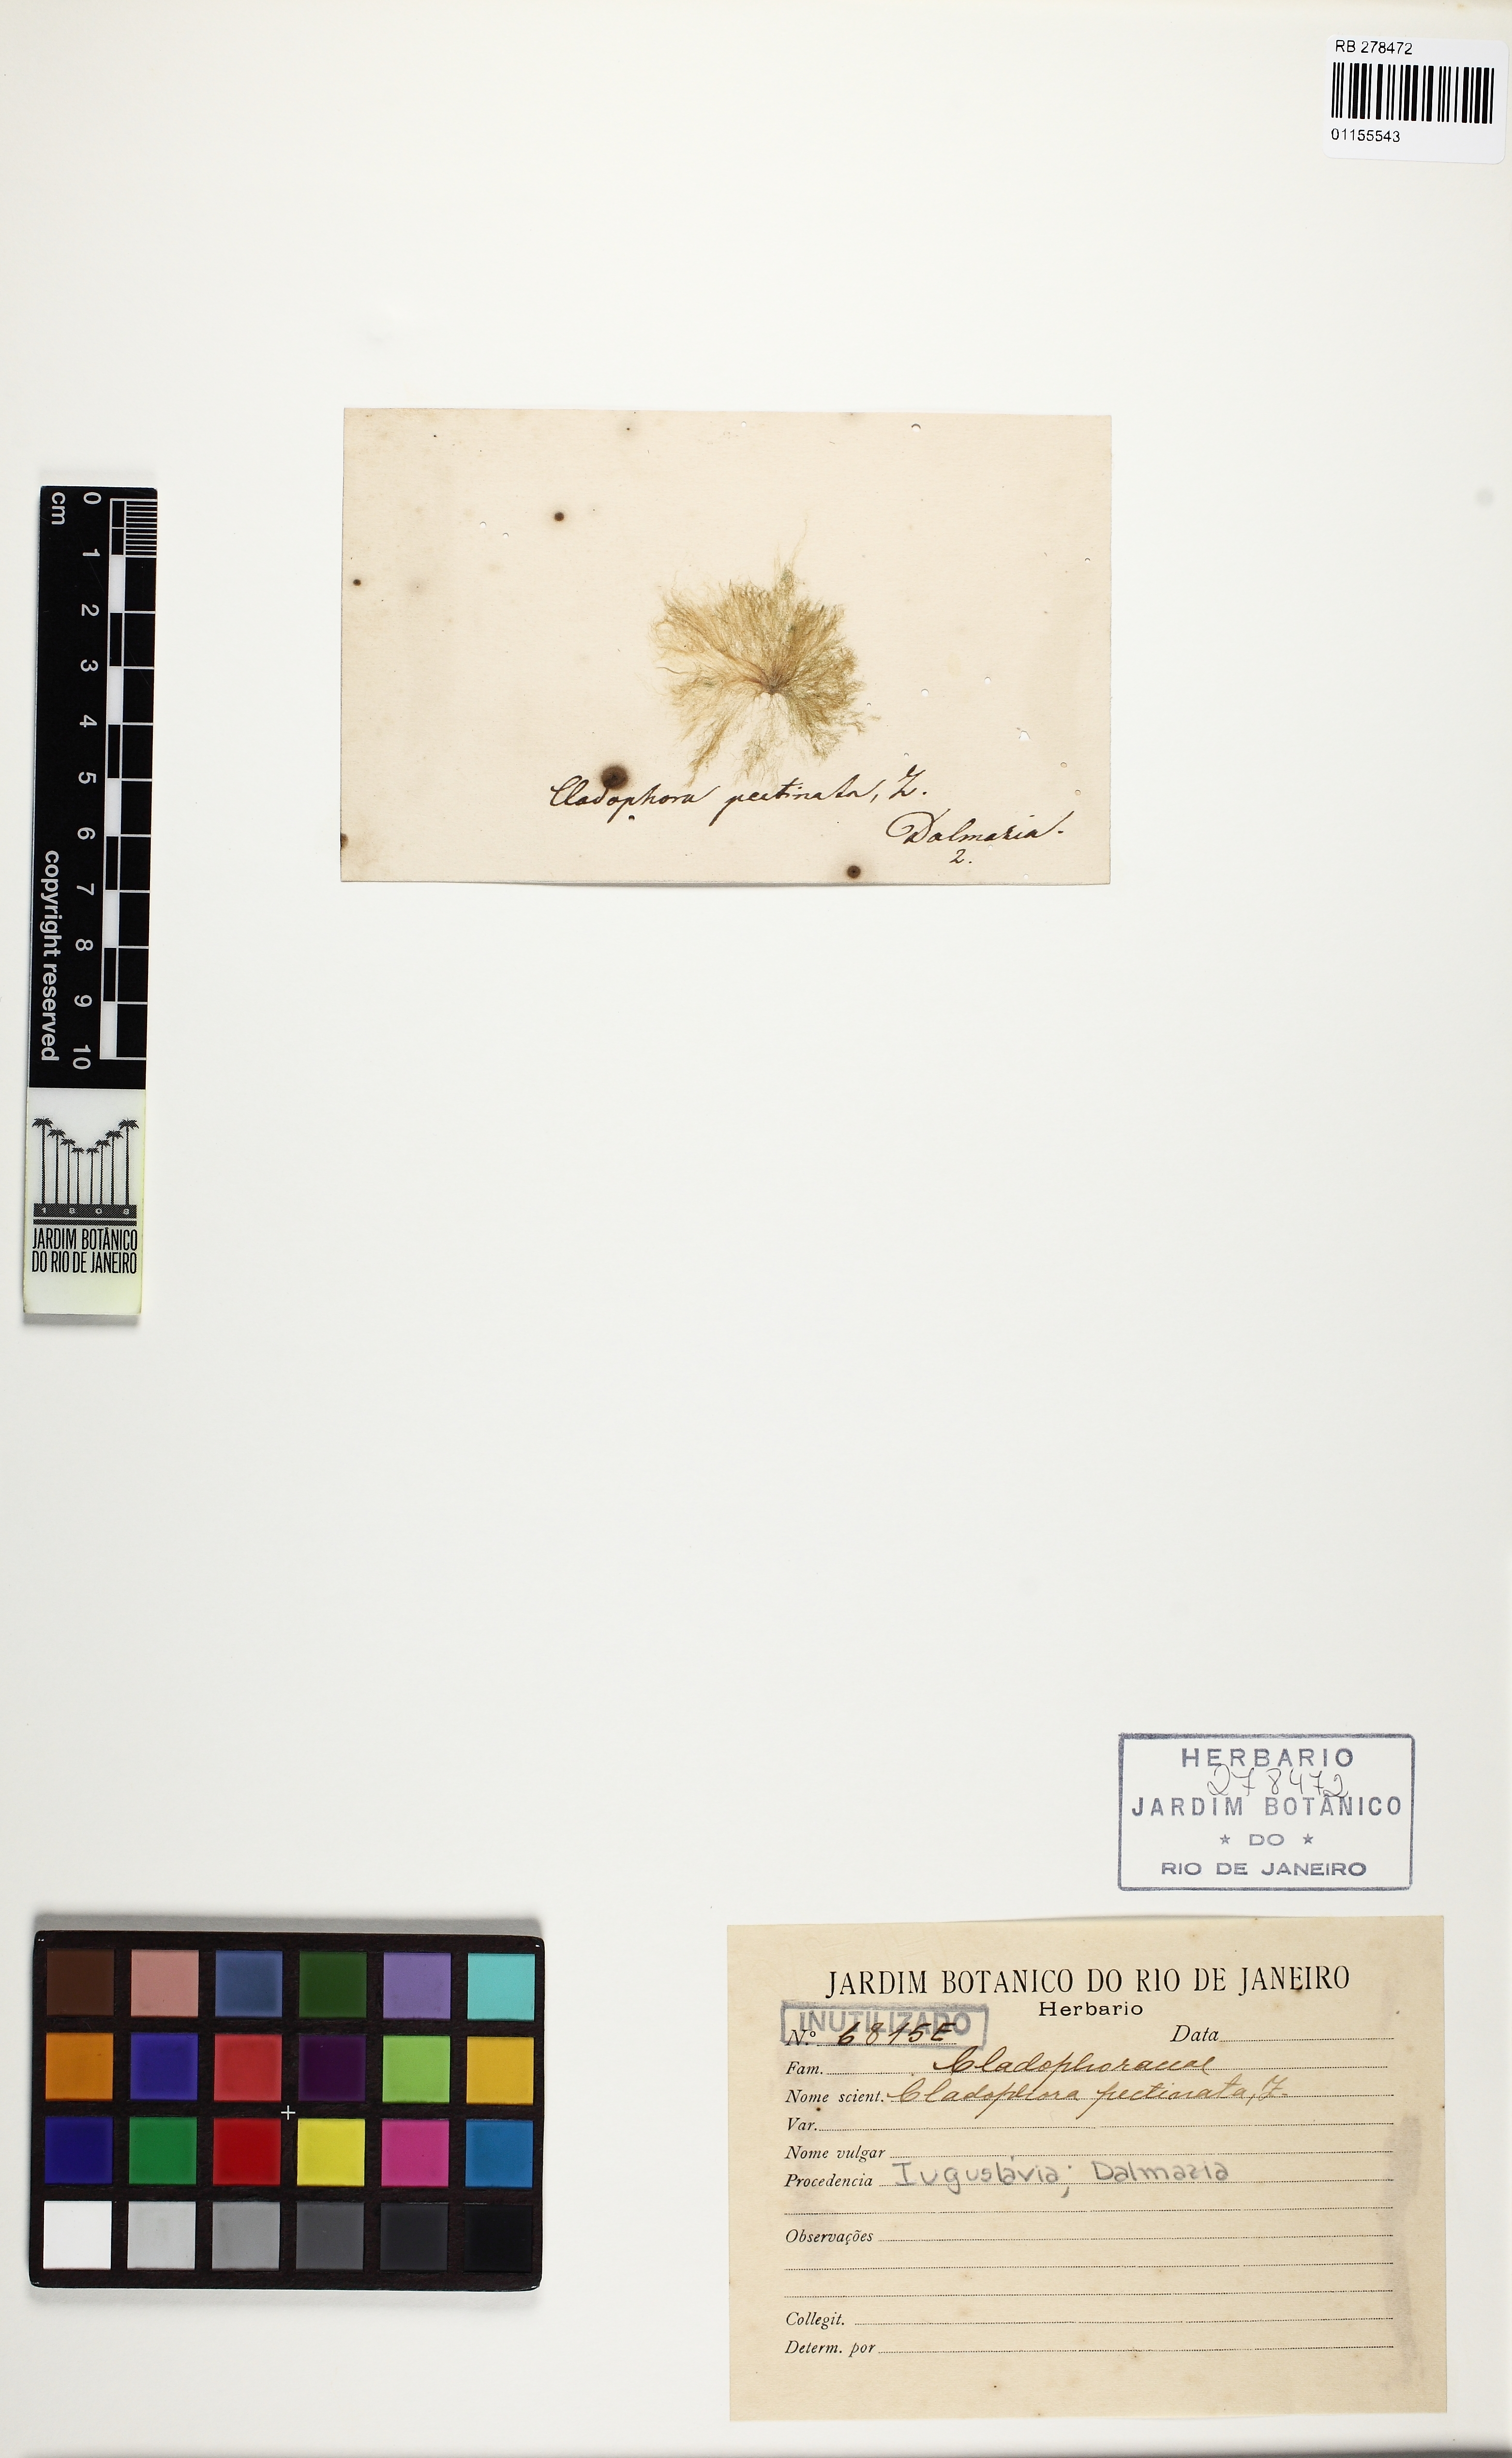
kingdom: Plantae
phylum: Chlorophyta
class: Ulvophyceae
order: Cladophorales
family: Cladophoraceae
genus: Cladophora
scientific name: Cladophora
